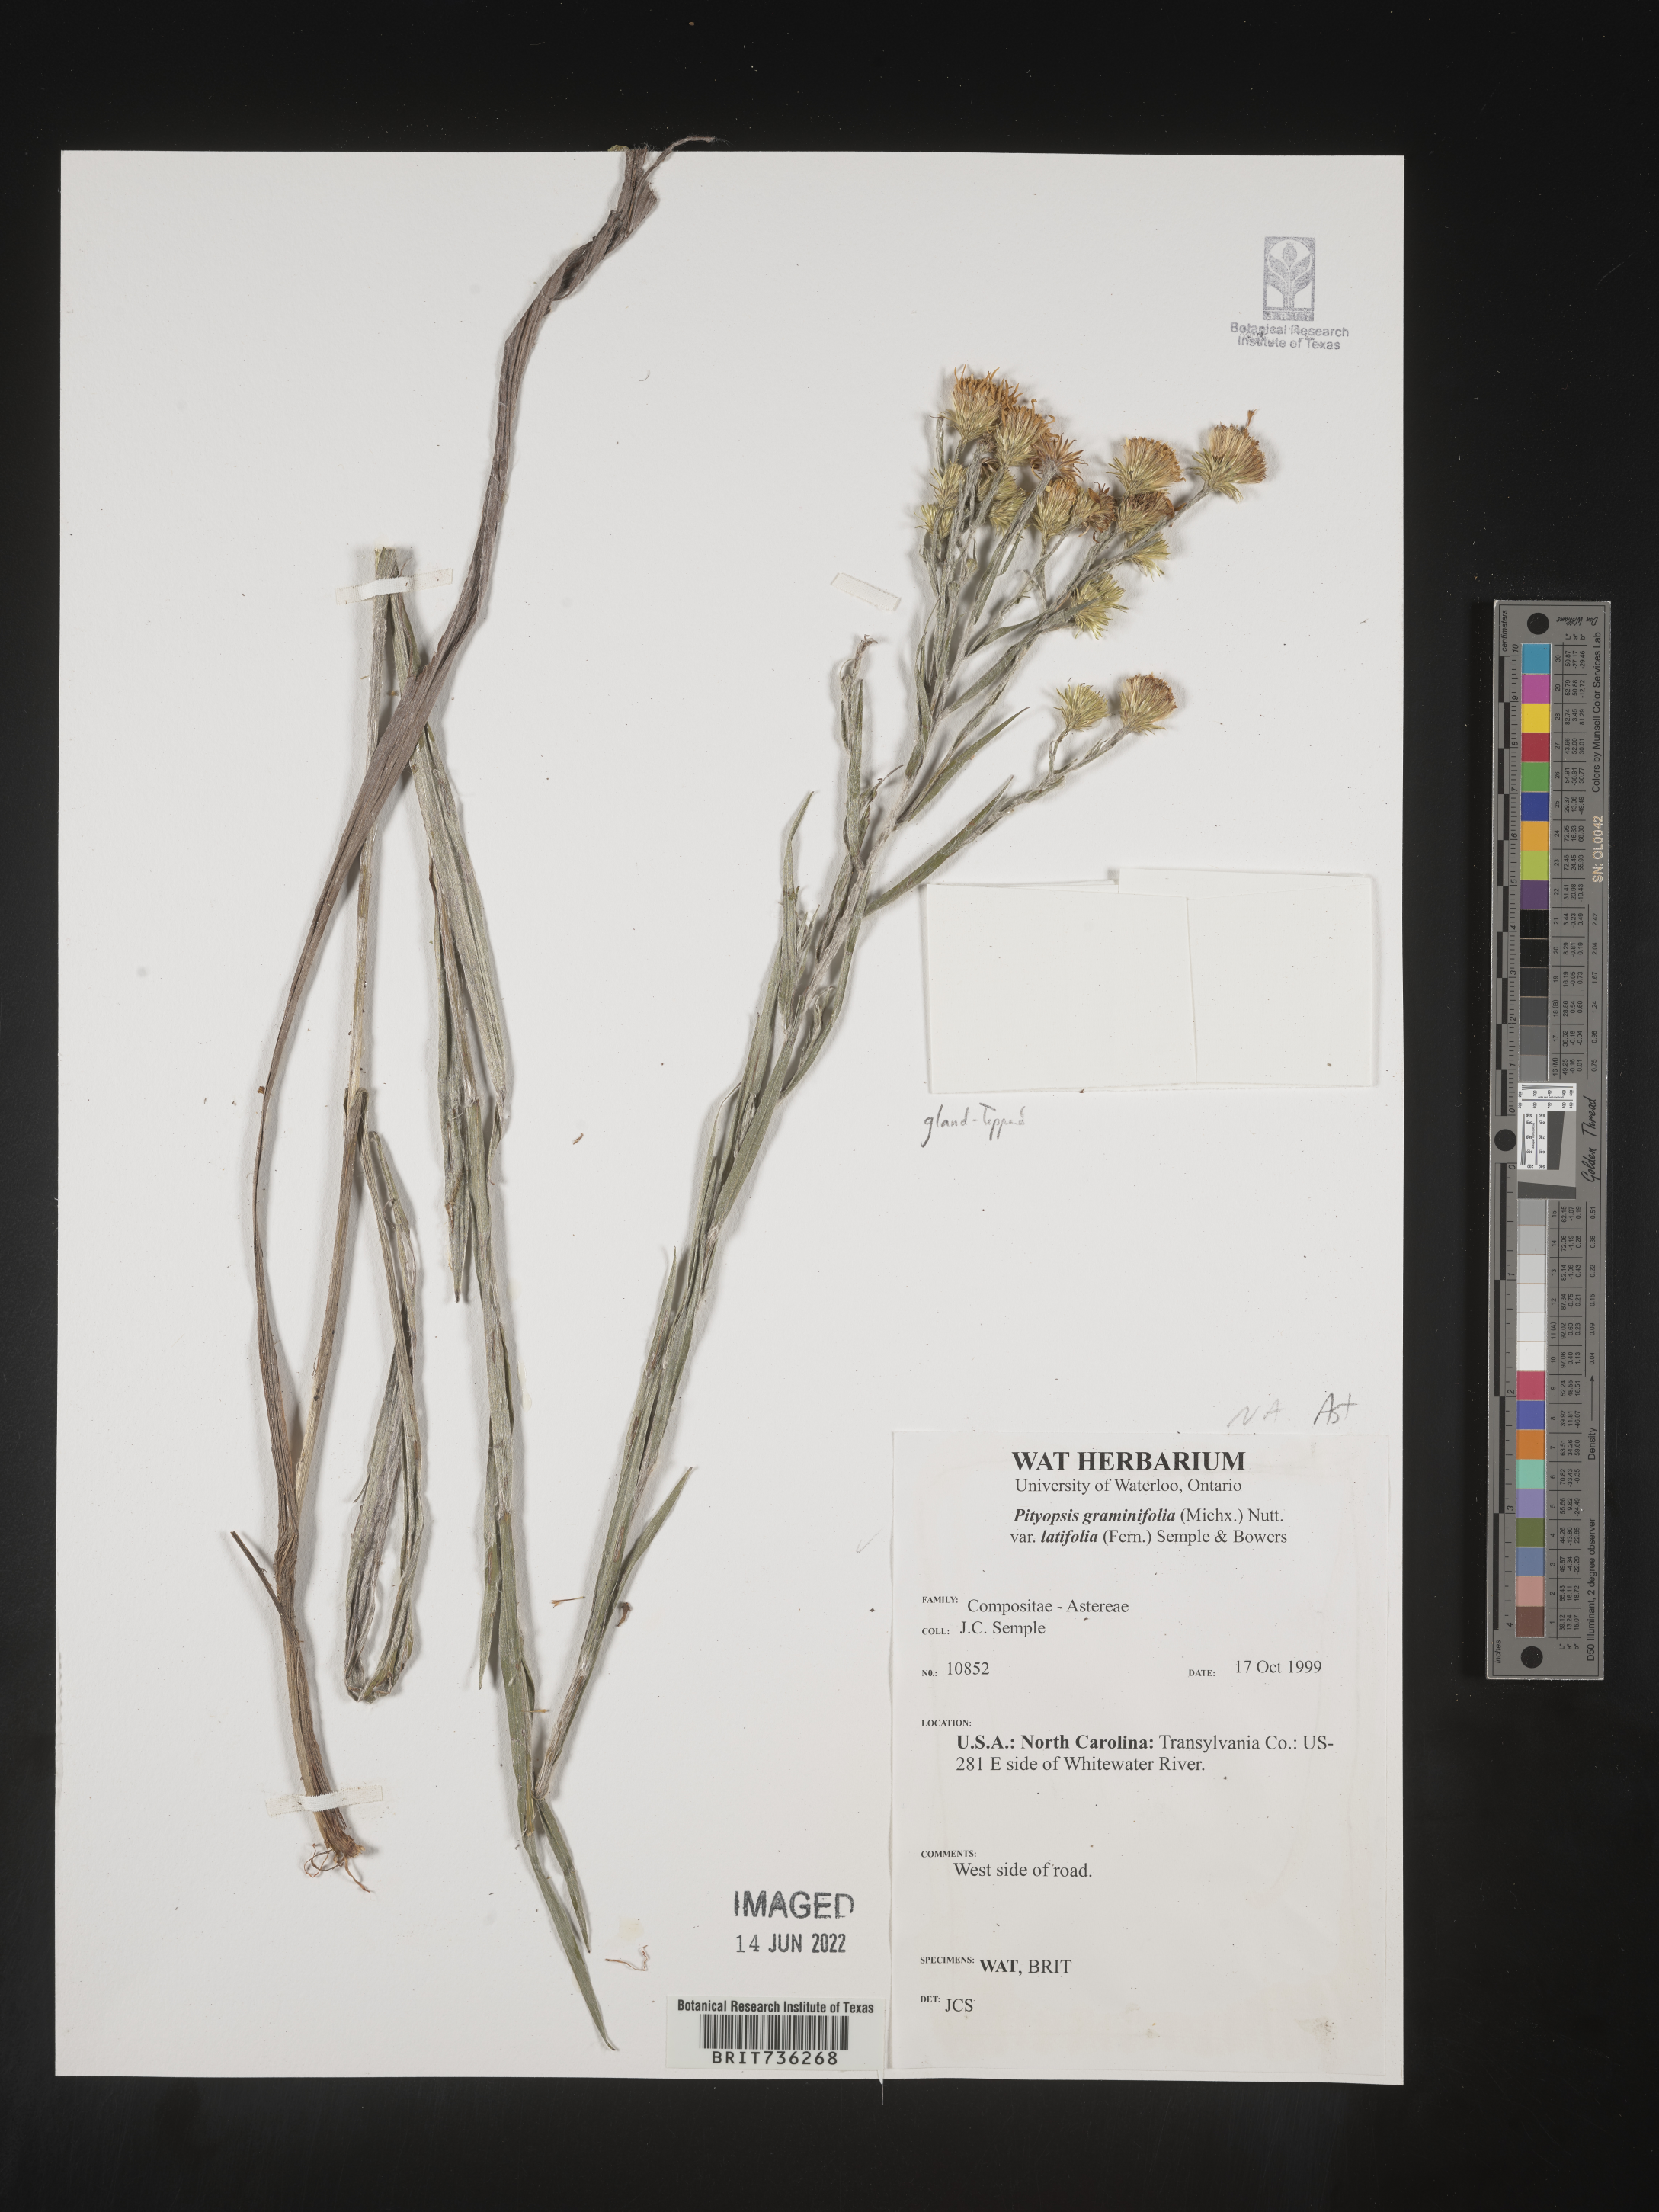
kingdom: Plantae
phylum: Tracheophyta
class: Magnoliopsida
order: Asterales
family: Asteraceae
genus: Pityopsis
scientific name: Pityopsis graminifolia
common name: Grass-leaf golden-aster
